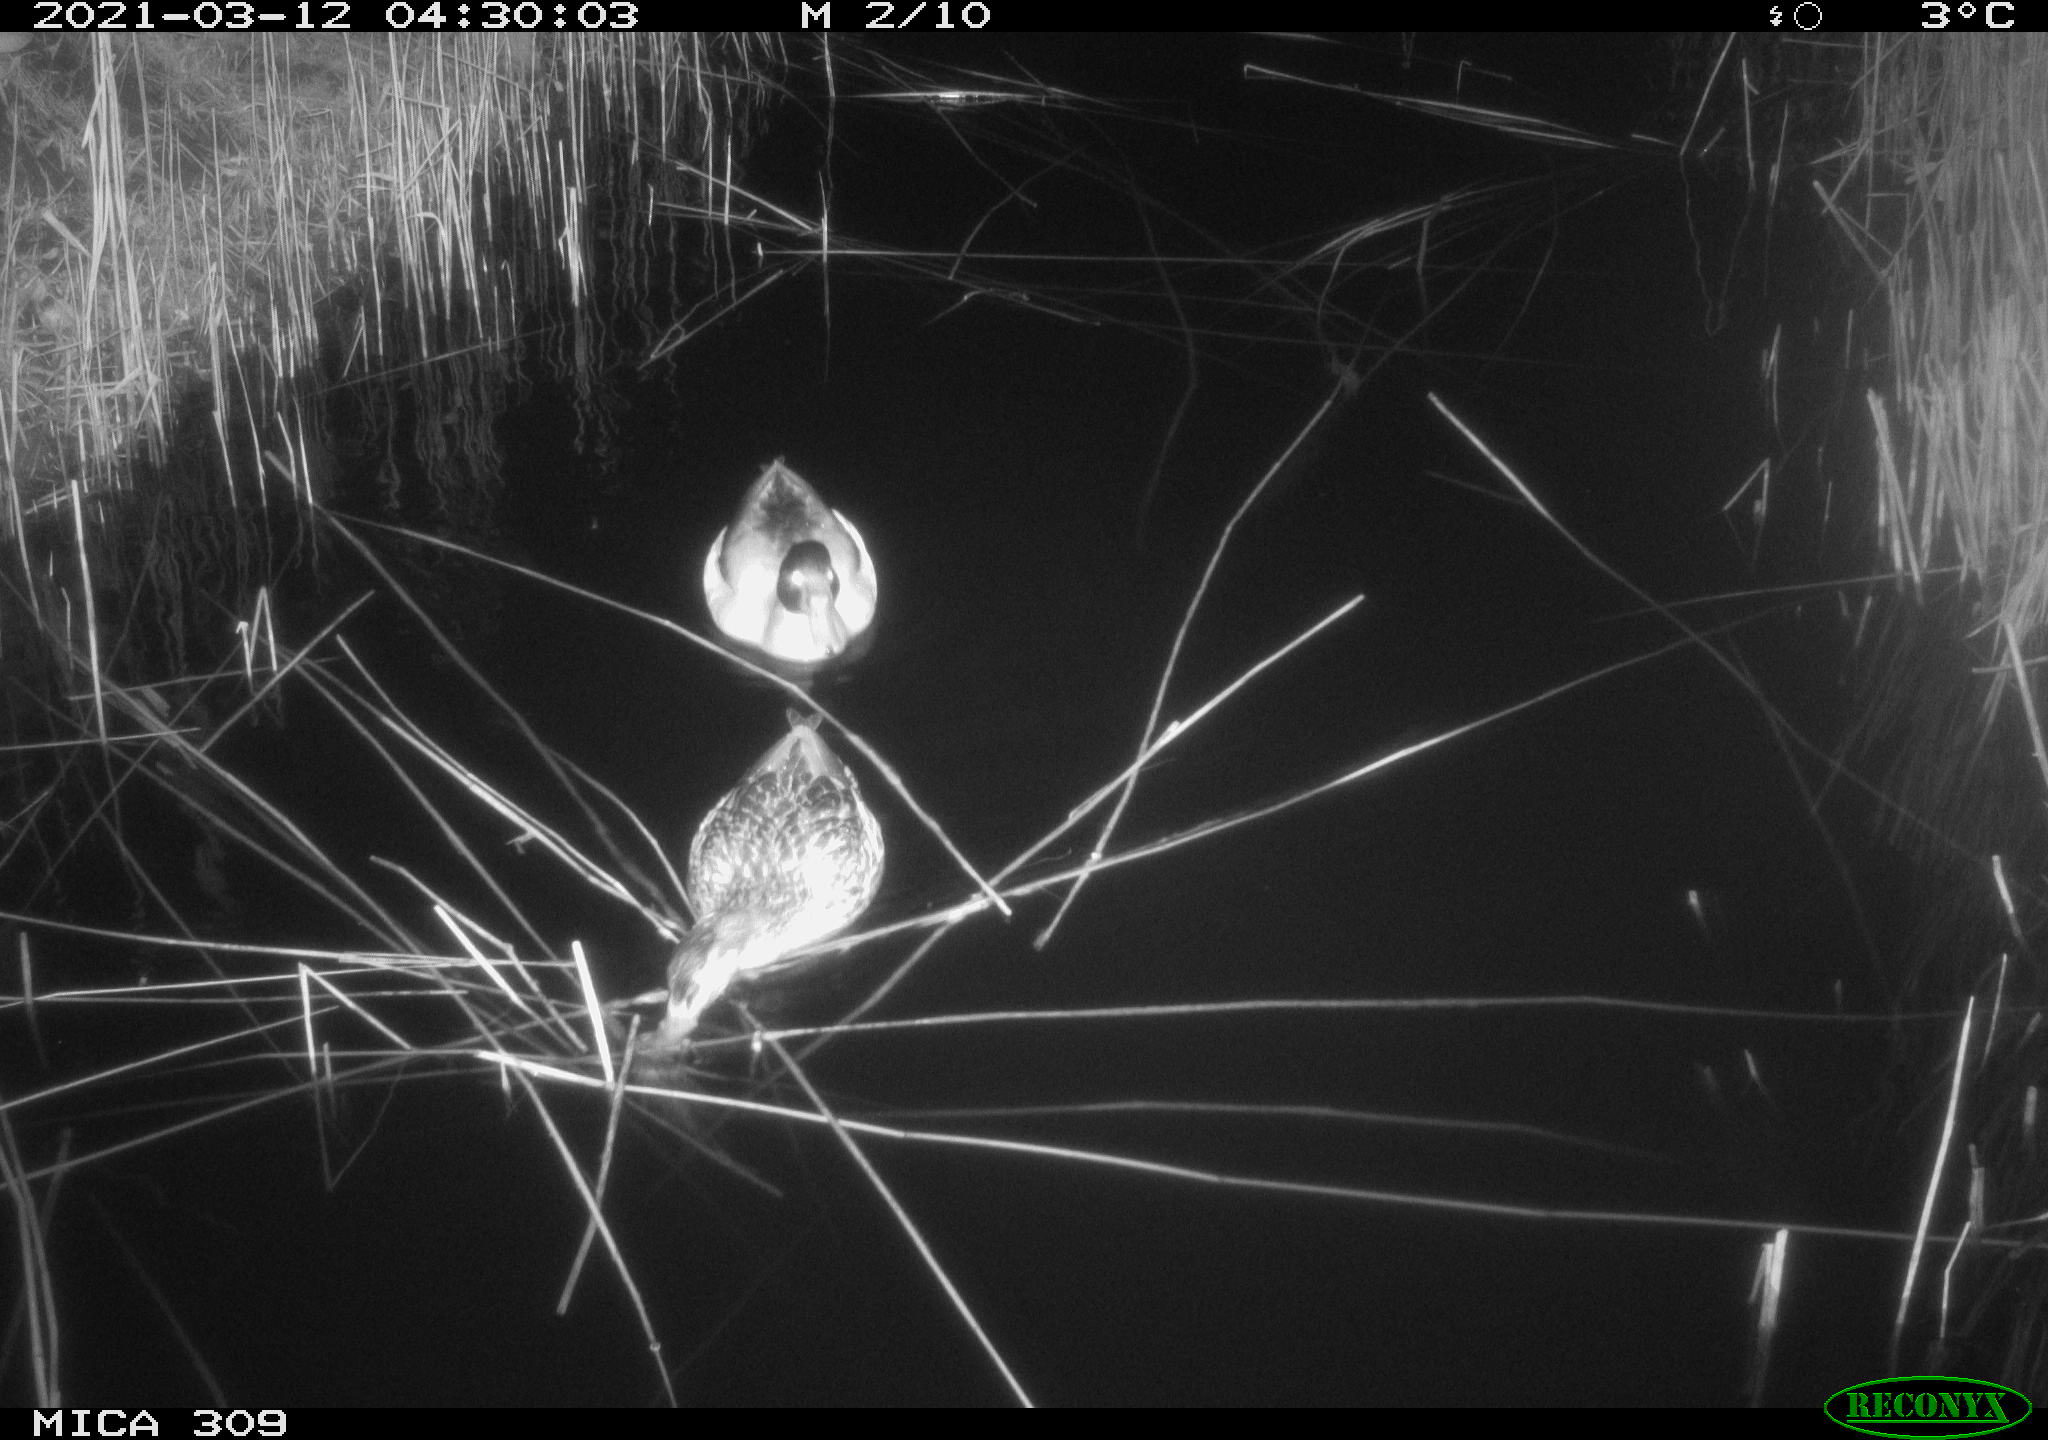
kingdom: Animalia
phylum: Chordata
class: Aves
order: Anseriformes
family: Anatidae
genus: Anas
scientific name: Anas platyrhynchos
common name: Mallard
